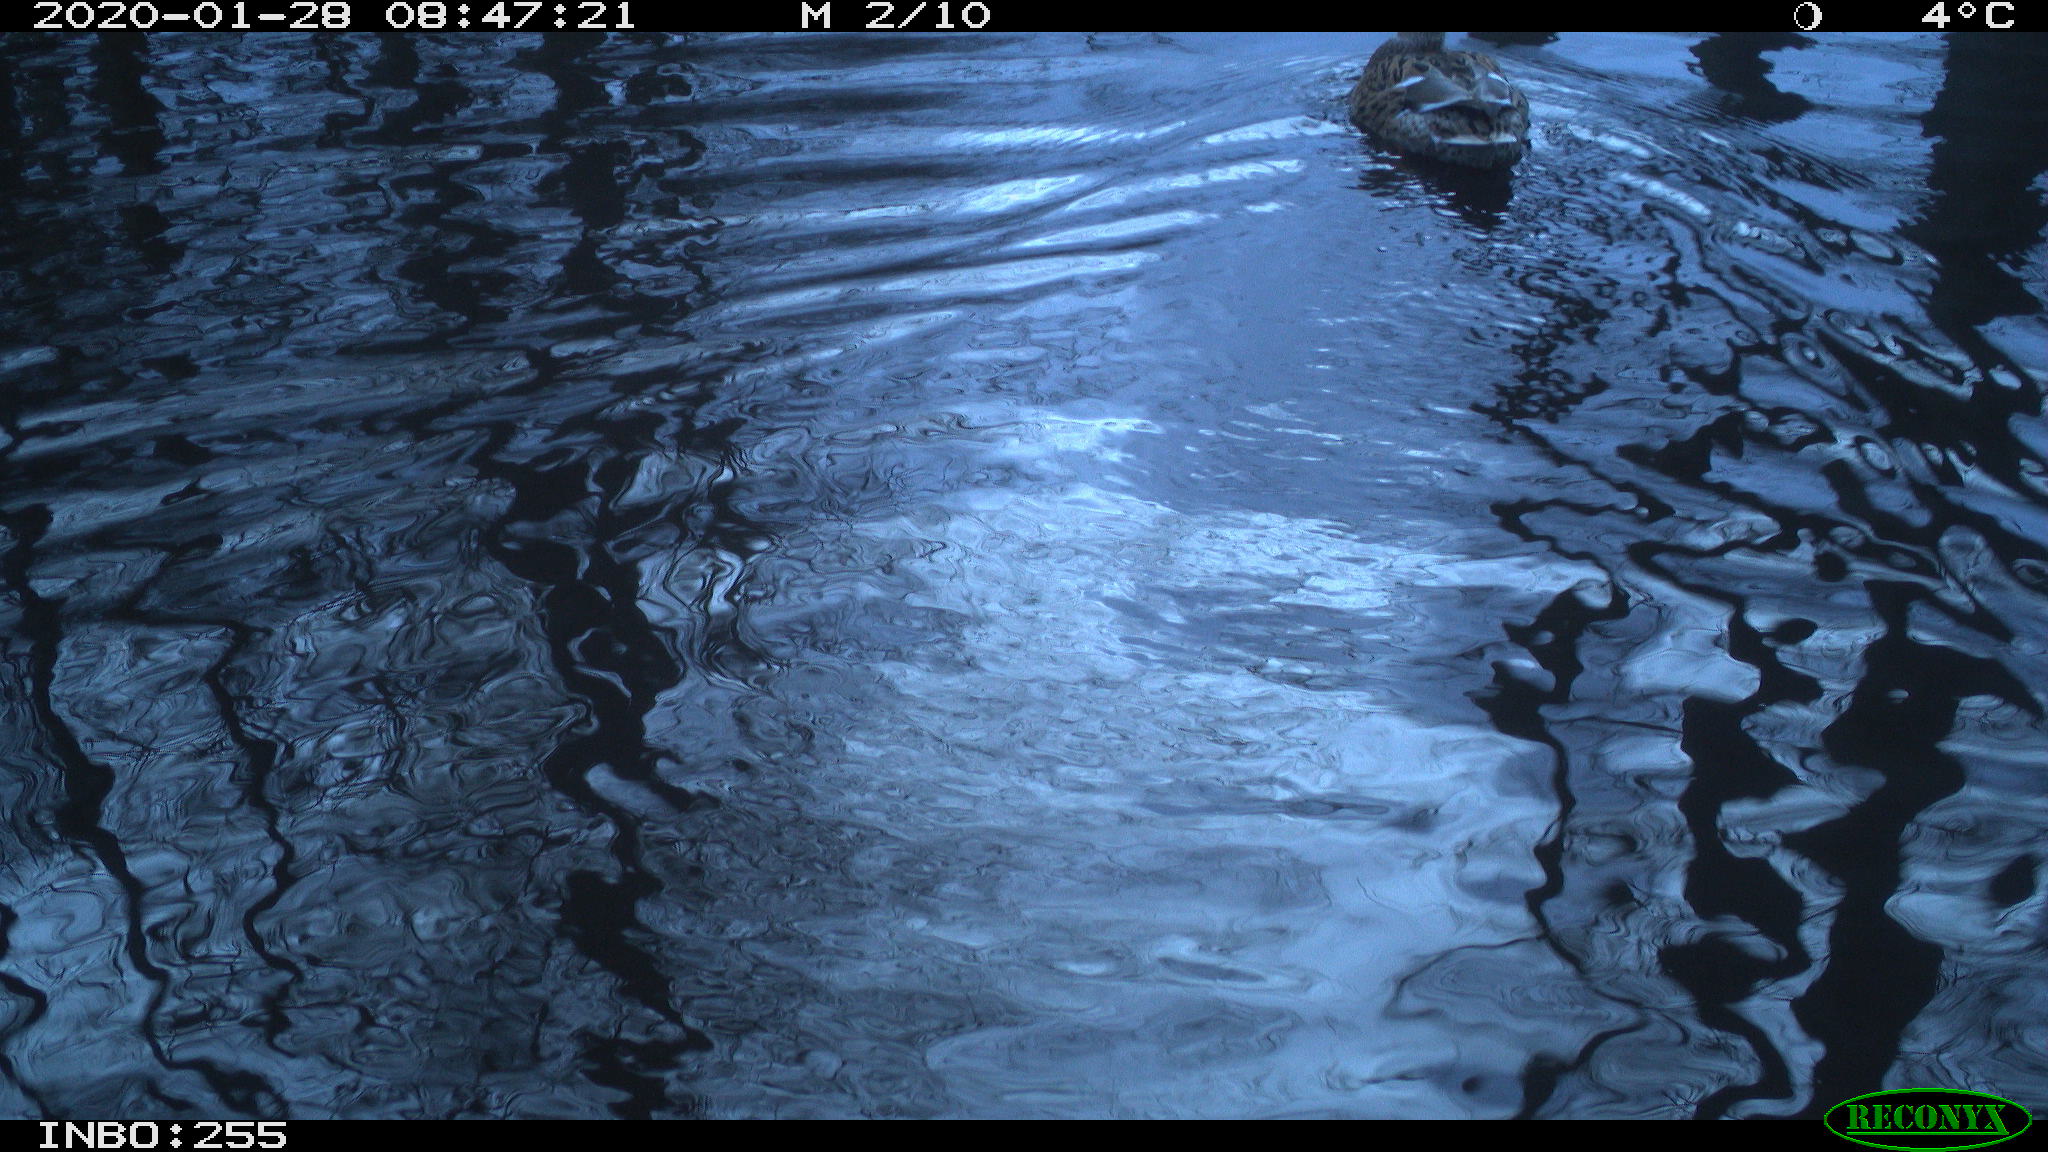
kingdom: Animalia
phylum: Chordata
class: Aves
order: Anseriformes
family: Anatidae
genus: Anas
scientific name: Anas platyrhynchos
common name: Mallard
